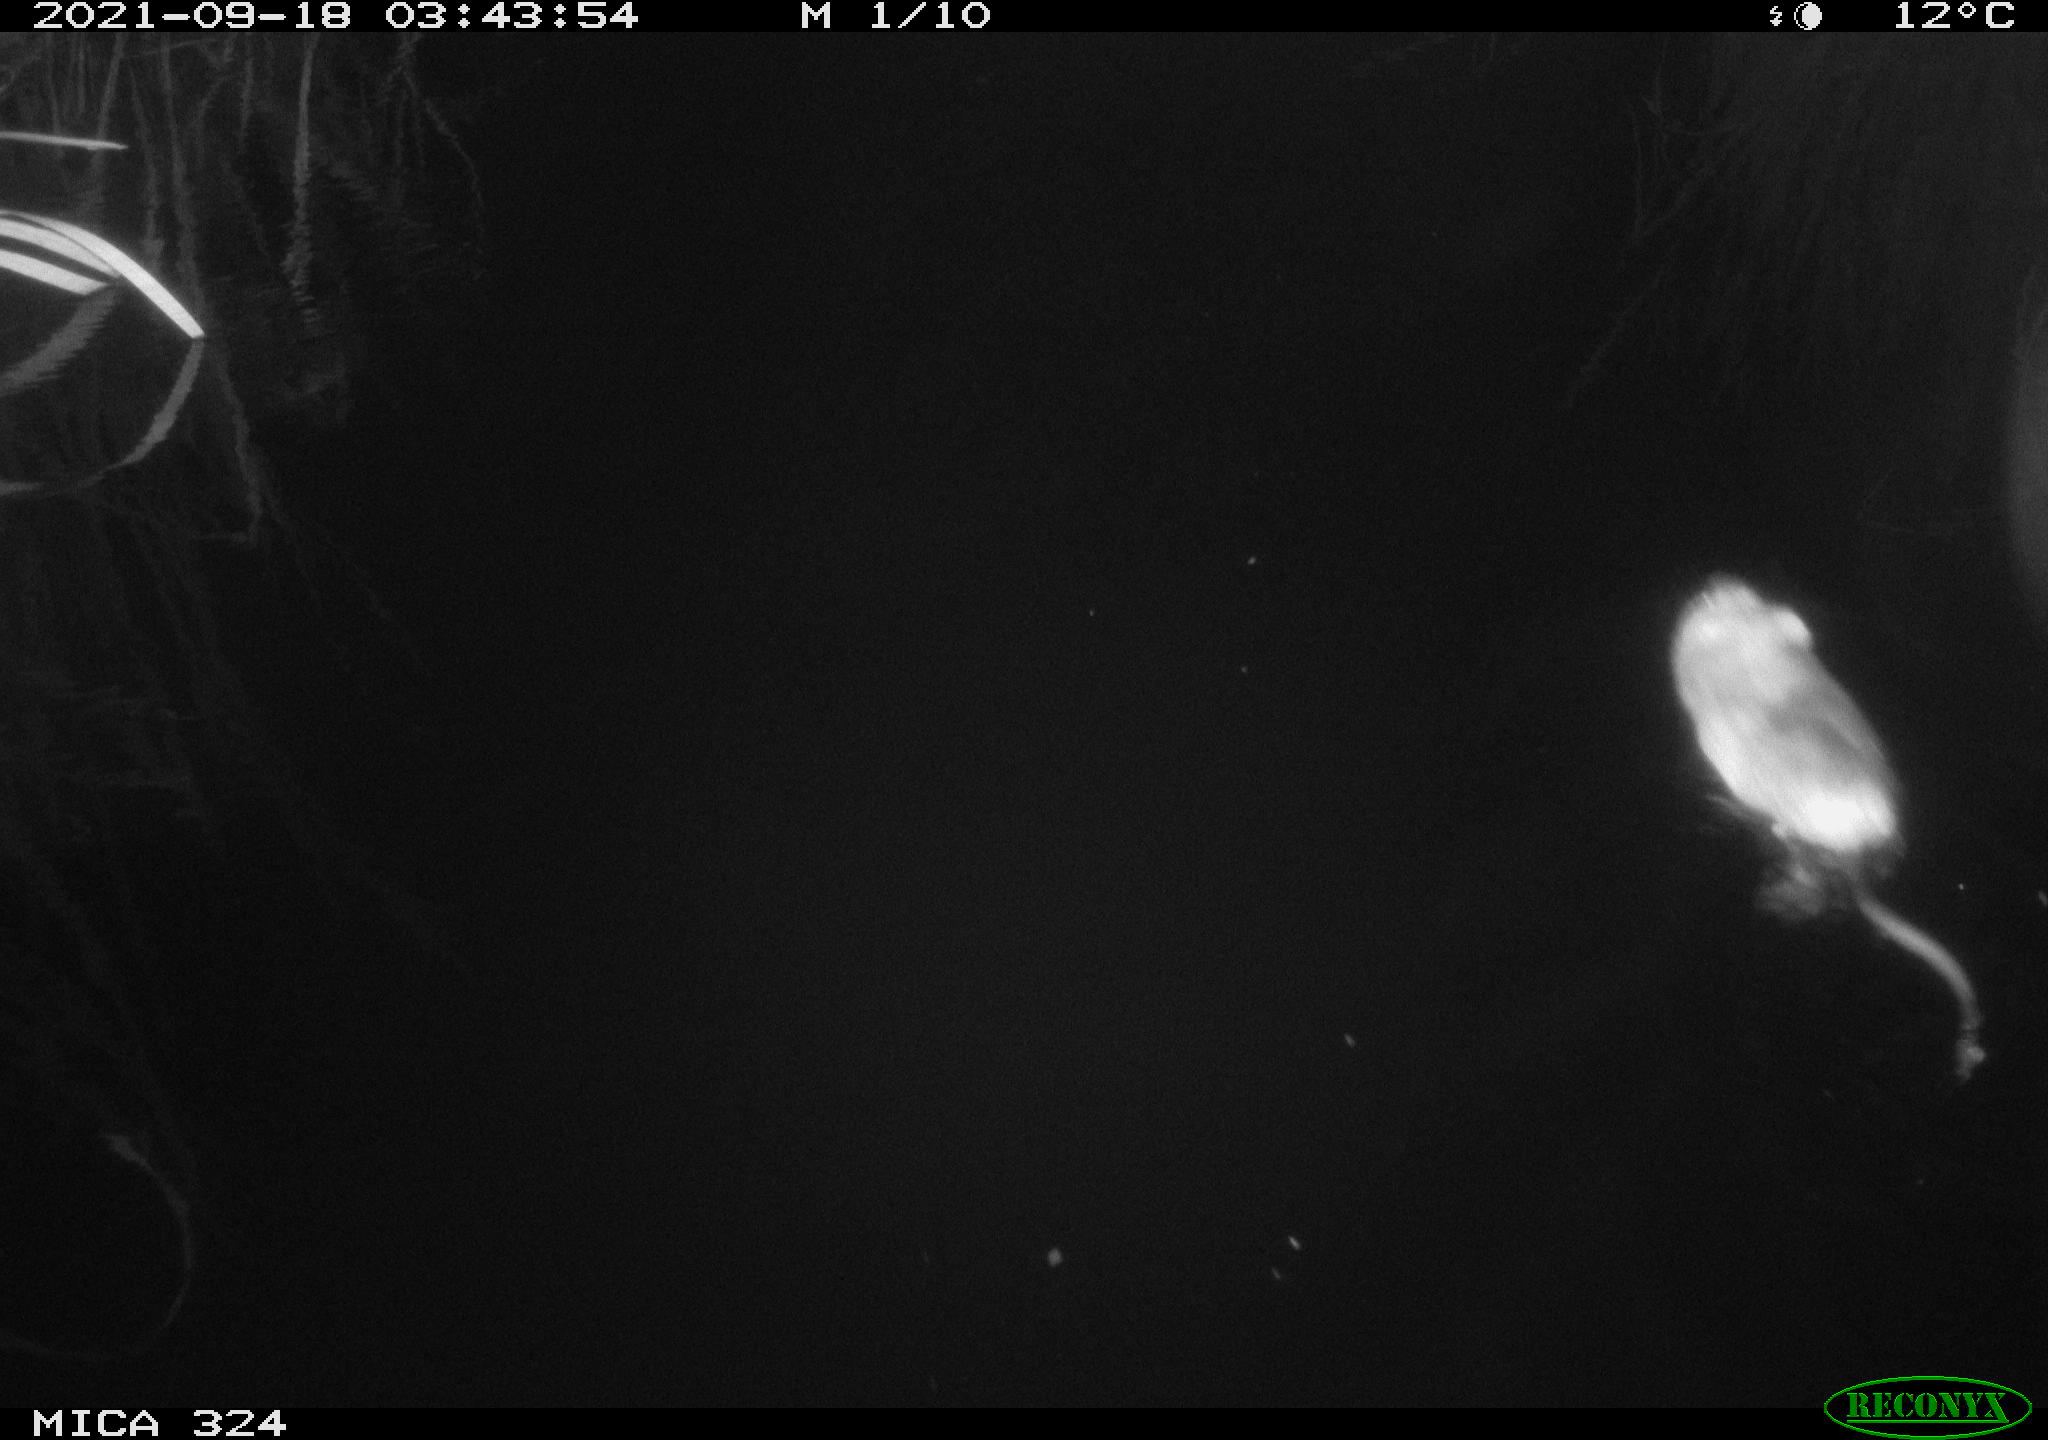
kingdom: Animalia
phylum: Chordata
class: Mammalia
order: Rodentia
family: Cricetidae
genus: Ondatra
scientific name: Ondatra zibethicus
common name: Muskrat
